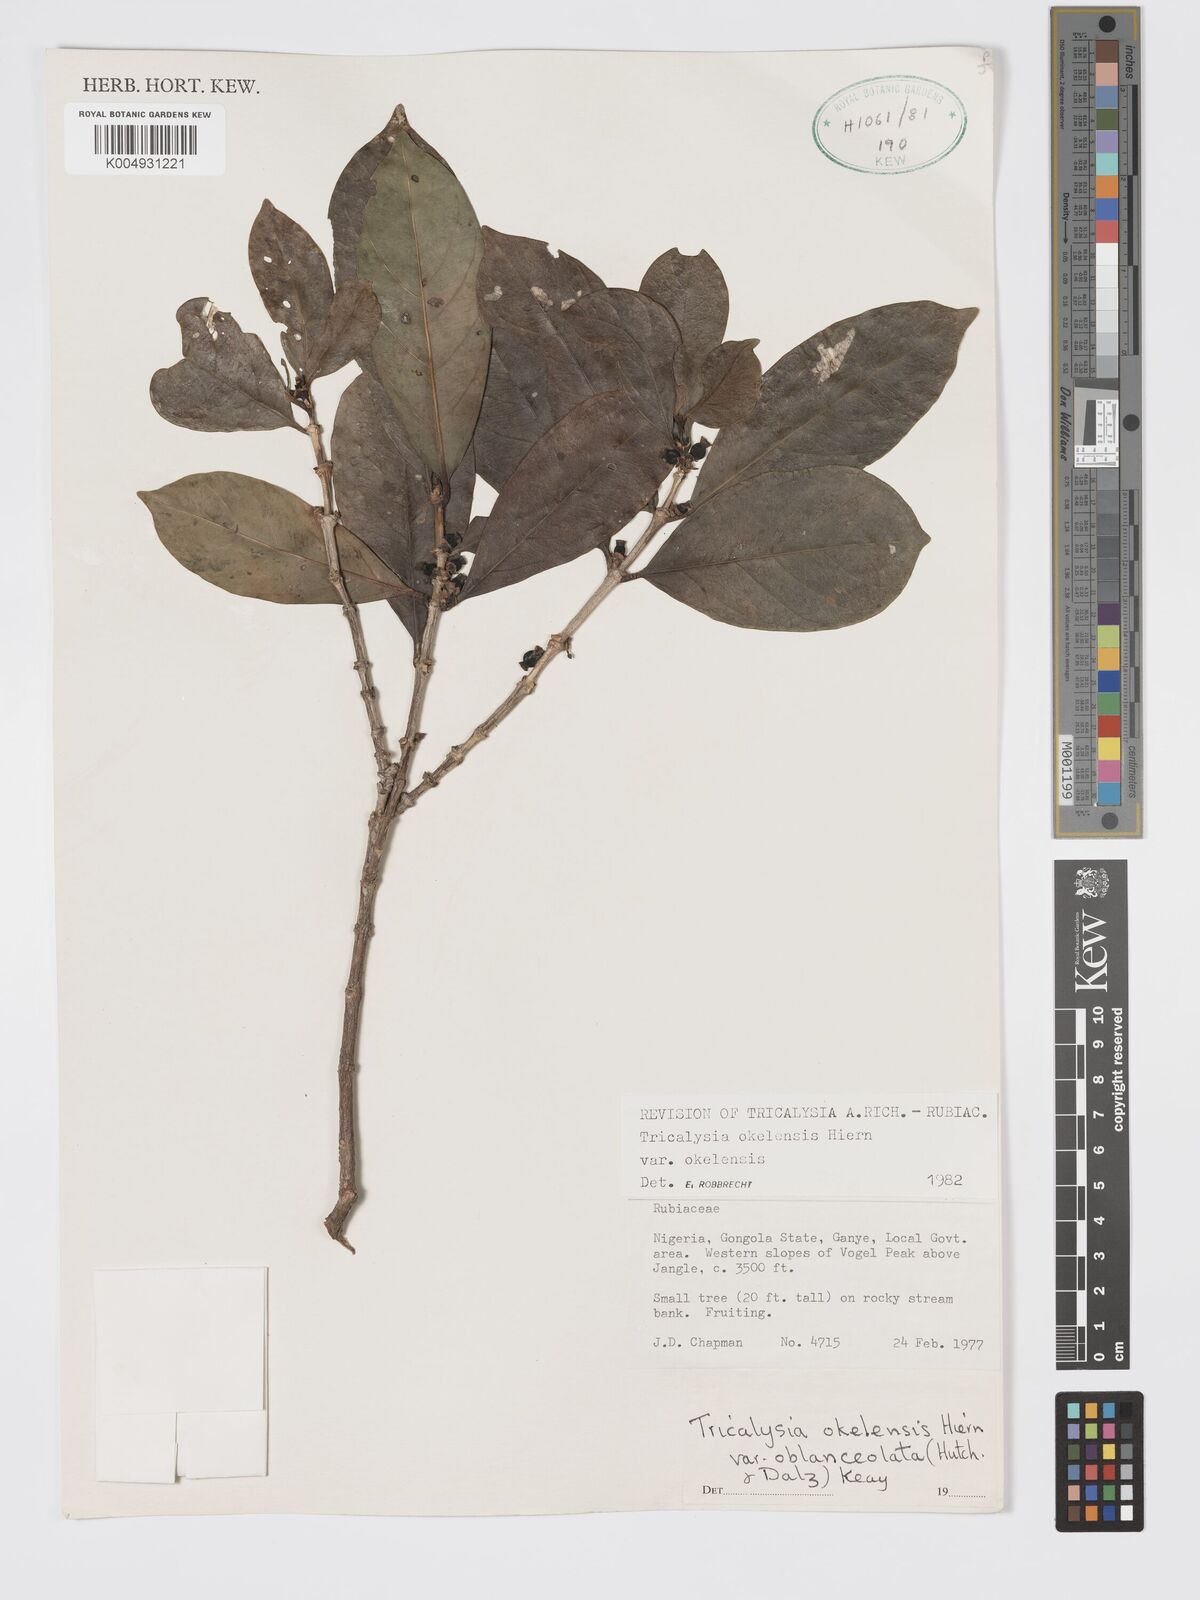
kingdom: Plantae
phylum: Tracheophyta
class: Magnoliopsida
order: Gentianales
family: Rubiaceae
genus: Tricalysia
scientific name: Tricalysia okelensis
